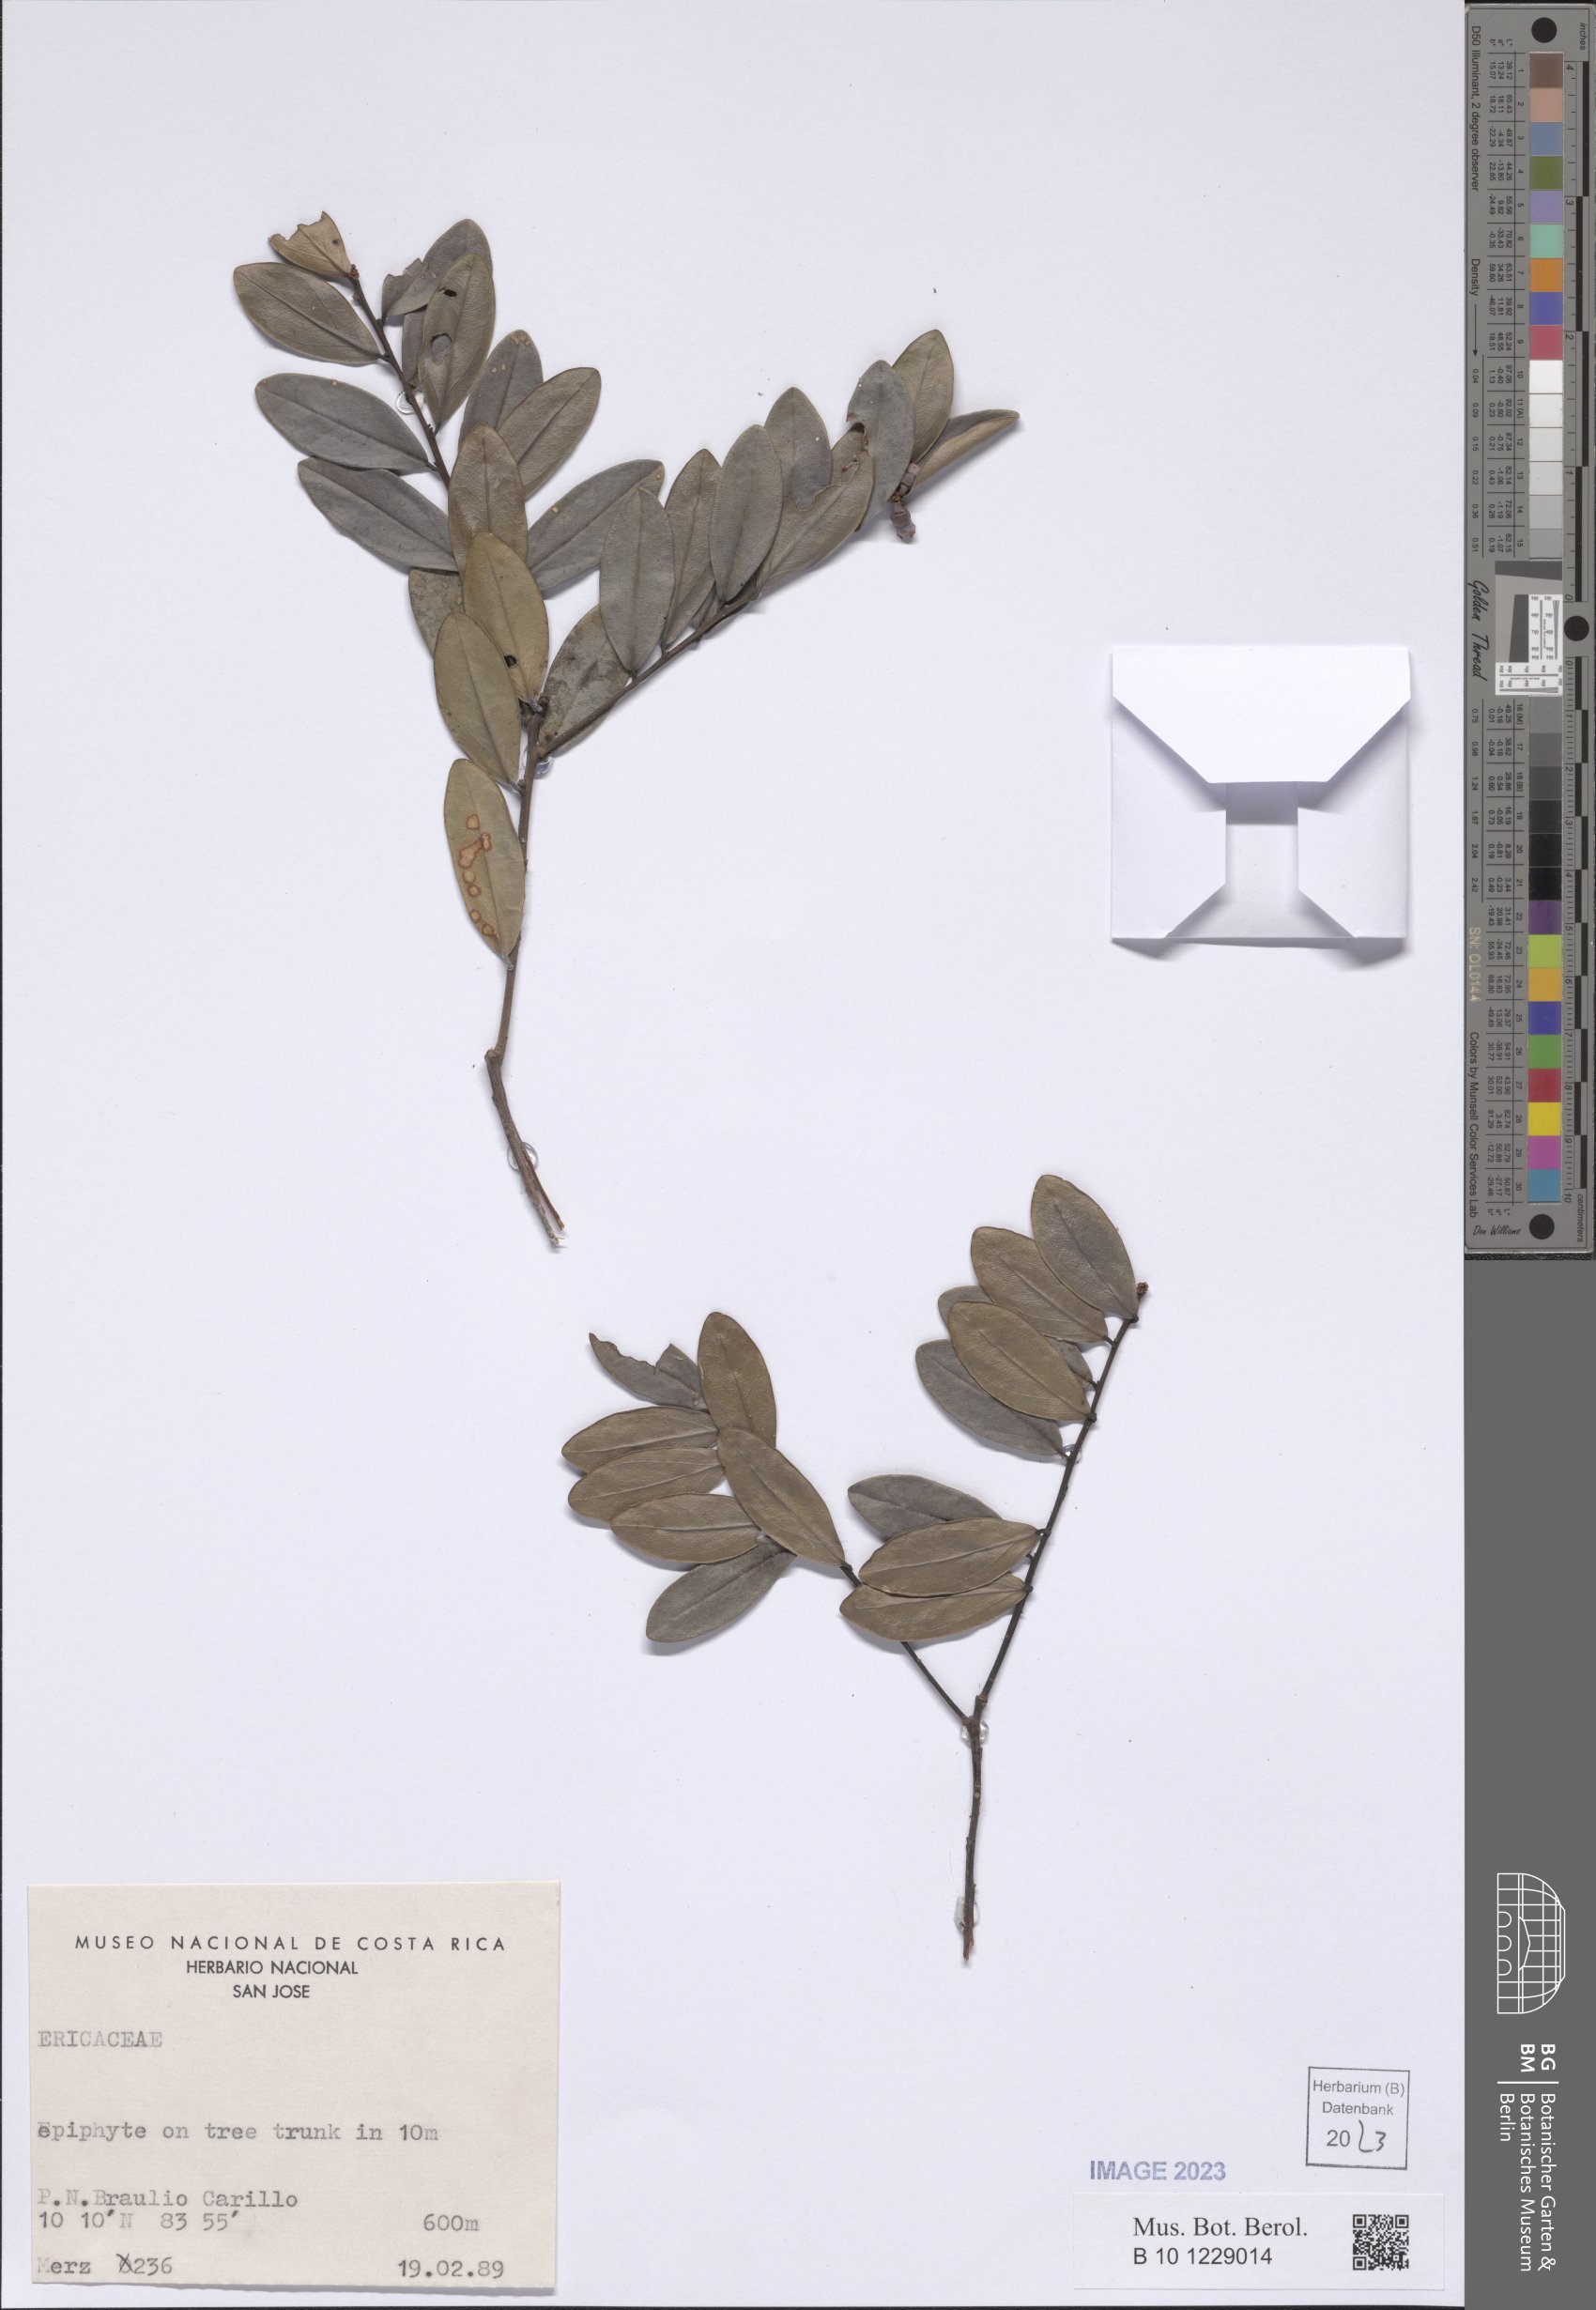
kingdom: Plantae
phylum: Tracheophyta
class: Magnoliopsida
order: Ericales
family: Ericaceae
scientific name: Ericaceae
